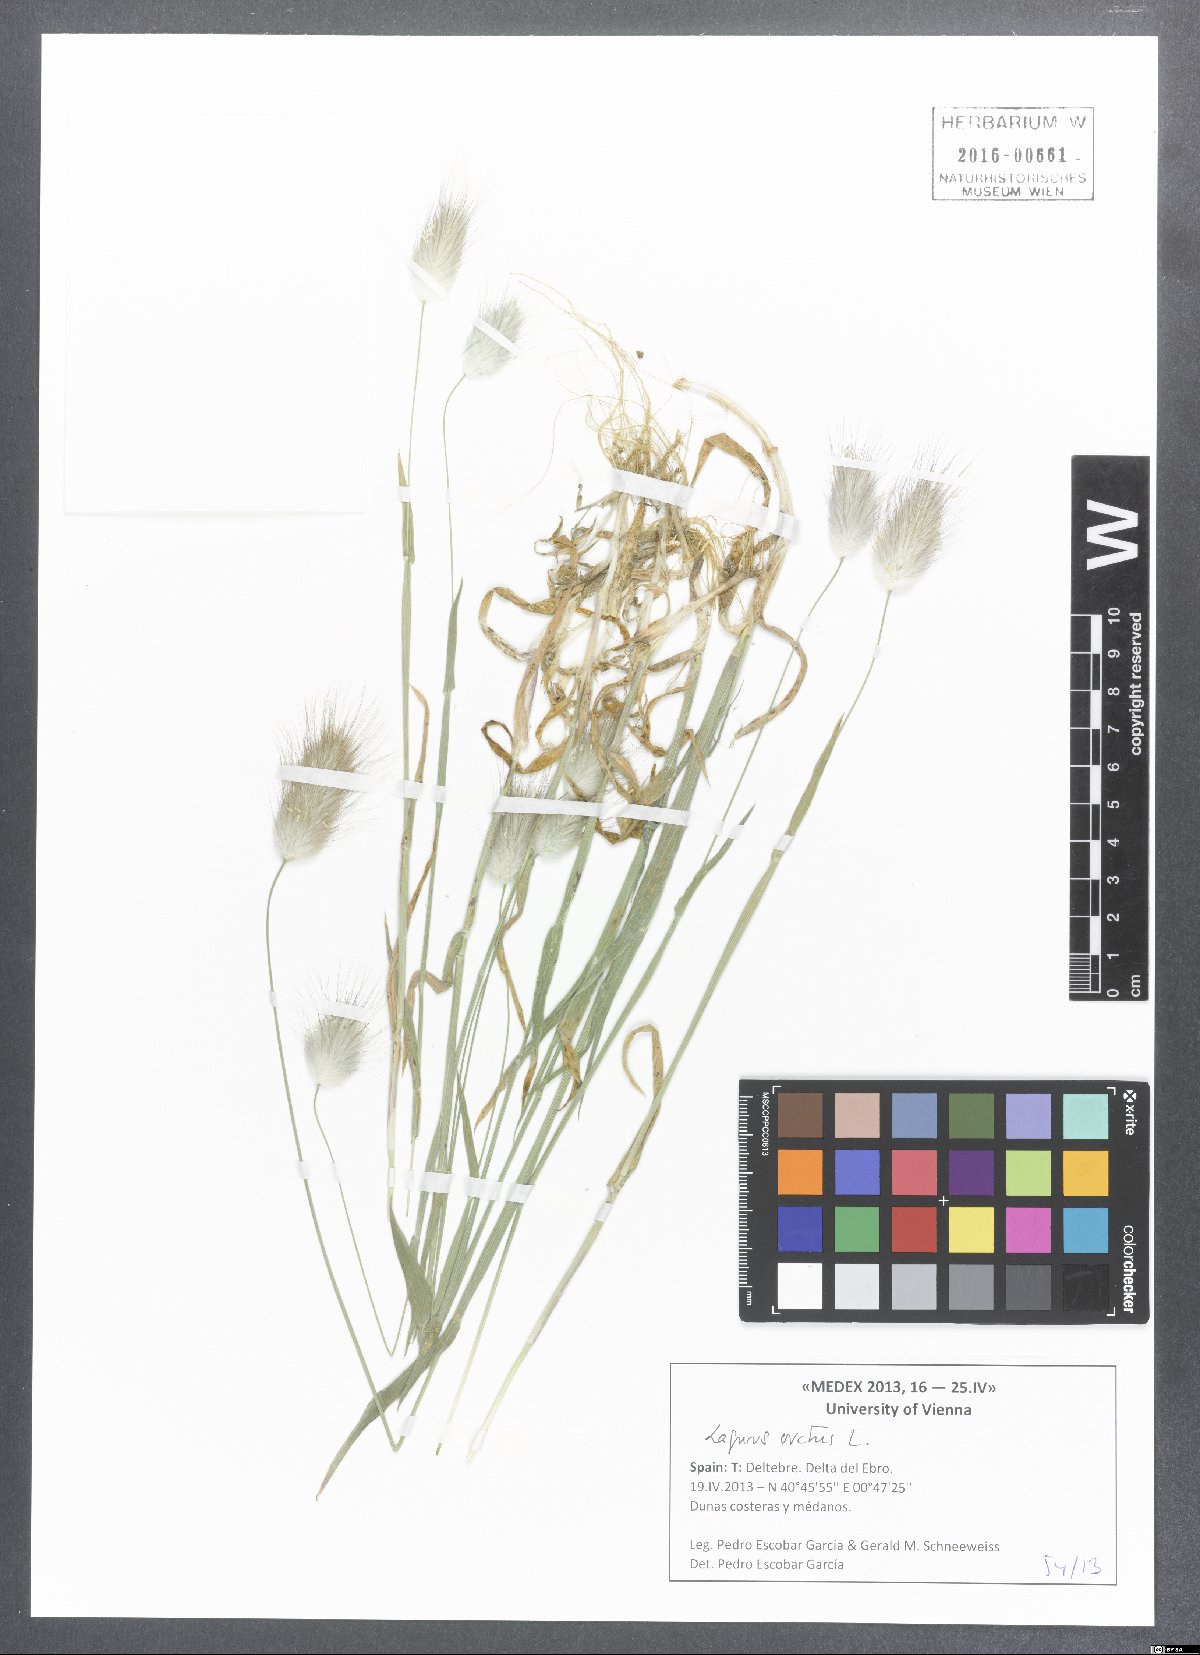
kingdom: Plantae
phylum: Tracheophyta
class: Liliopsida
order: Poales
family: Poaceae
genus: Lagurus
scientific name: Lagurus ovatus
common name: Hare's-tail
